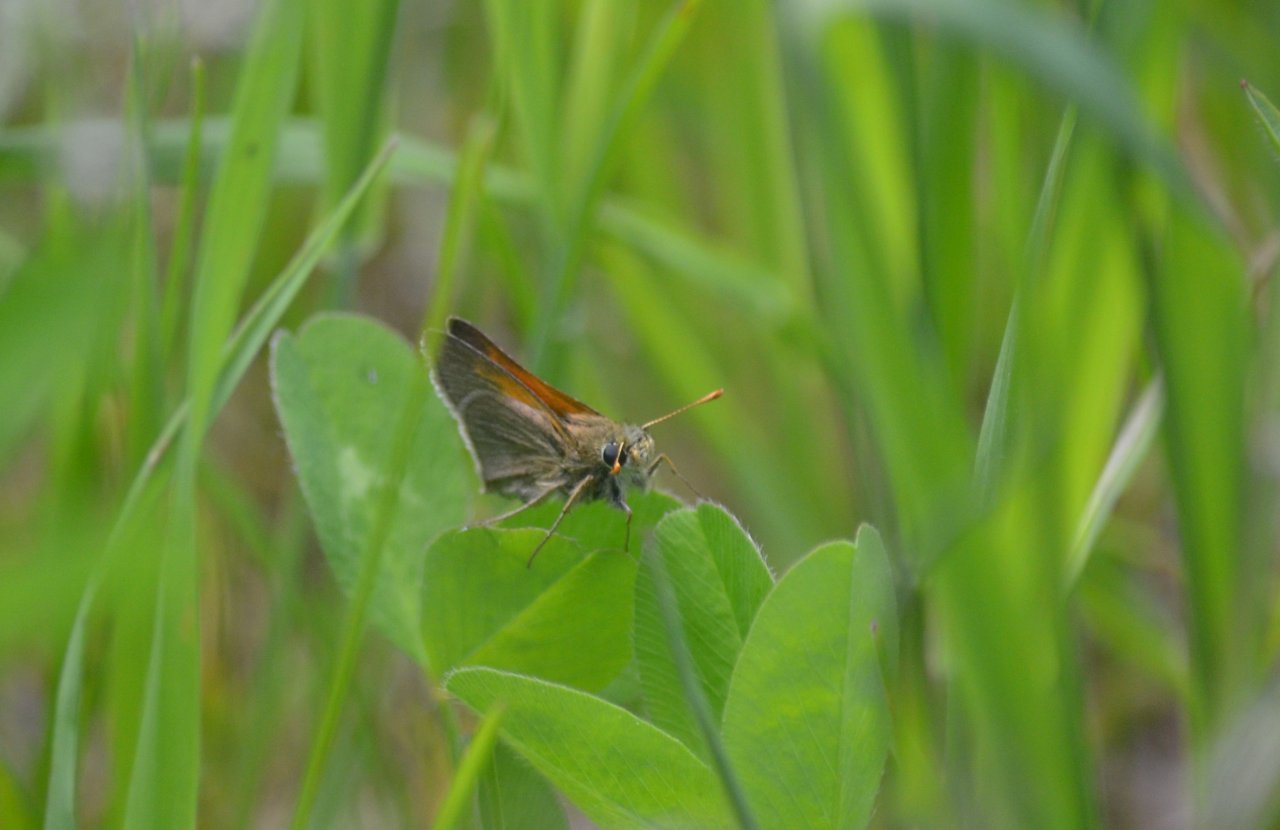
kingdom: Animalia
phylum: Arthropoda
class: Insecta
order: Lepidoptera
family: Hesperiidae
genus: Polites
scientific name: Polites themistocles
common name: Tawny-edged Skipper
